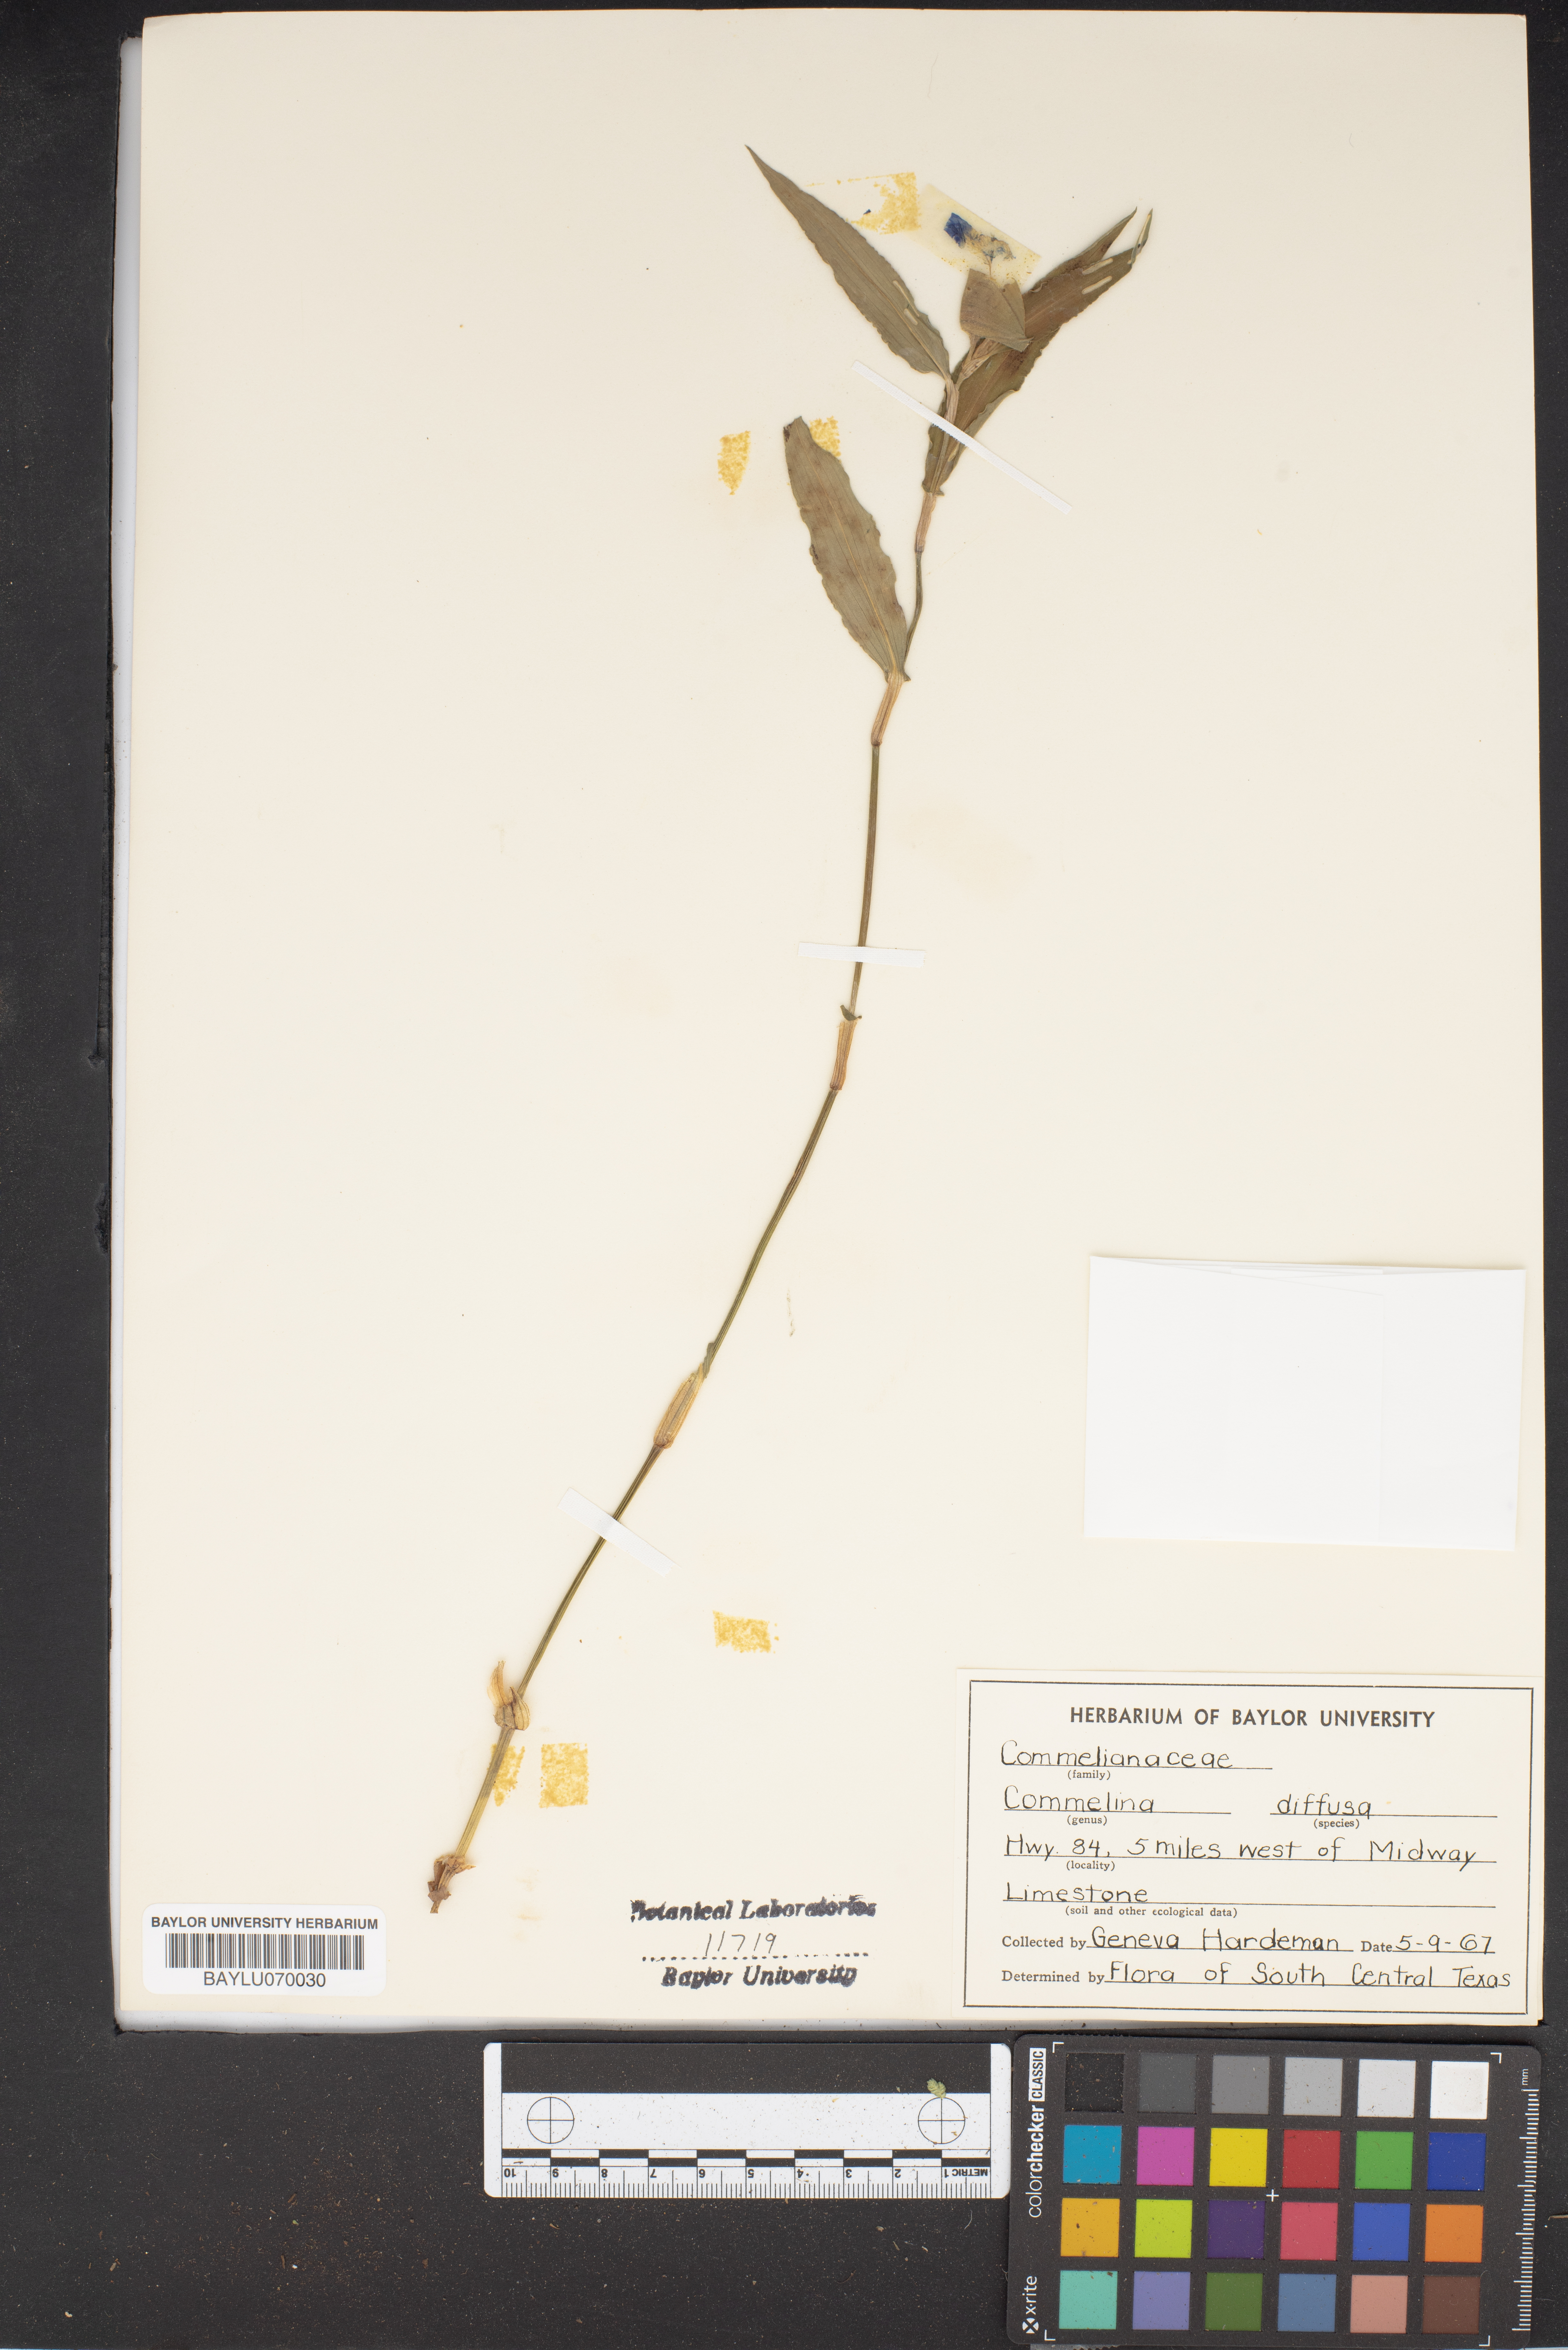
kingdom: Plantae
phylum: Tracheophyta
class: Liliopsida
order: Commelinales
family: Commelinaceae
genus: Commelina
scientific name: Commelina diffusa
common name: Climbing dayflower
